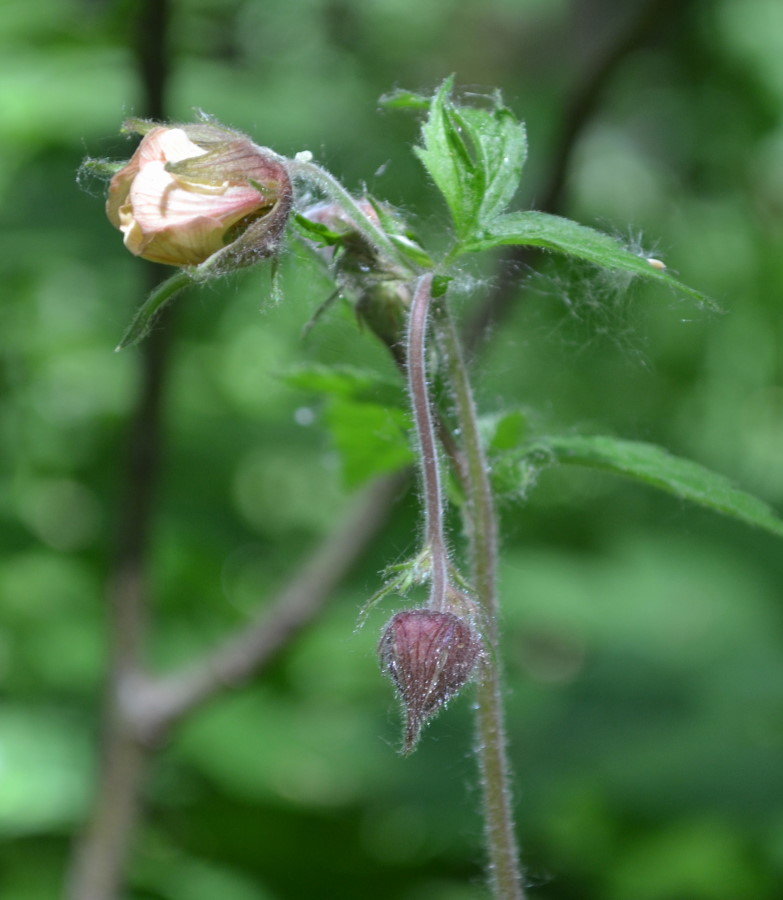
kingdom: Plantae
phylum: Tracheophyta
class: Magnoliopsida
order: Rosales
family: Rosaceae
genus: Geum
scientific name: Geum rivale
